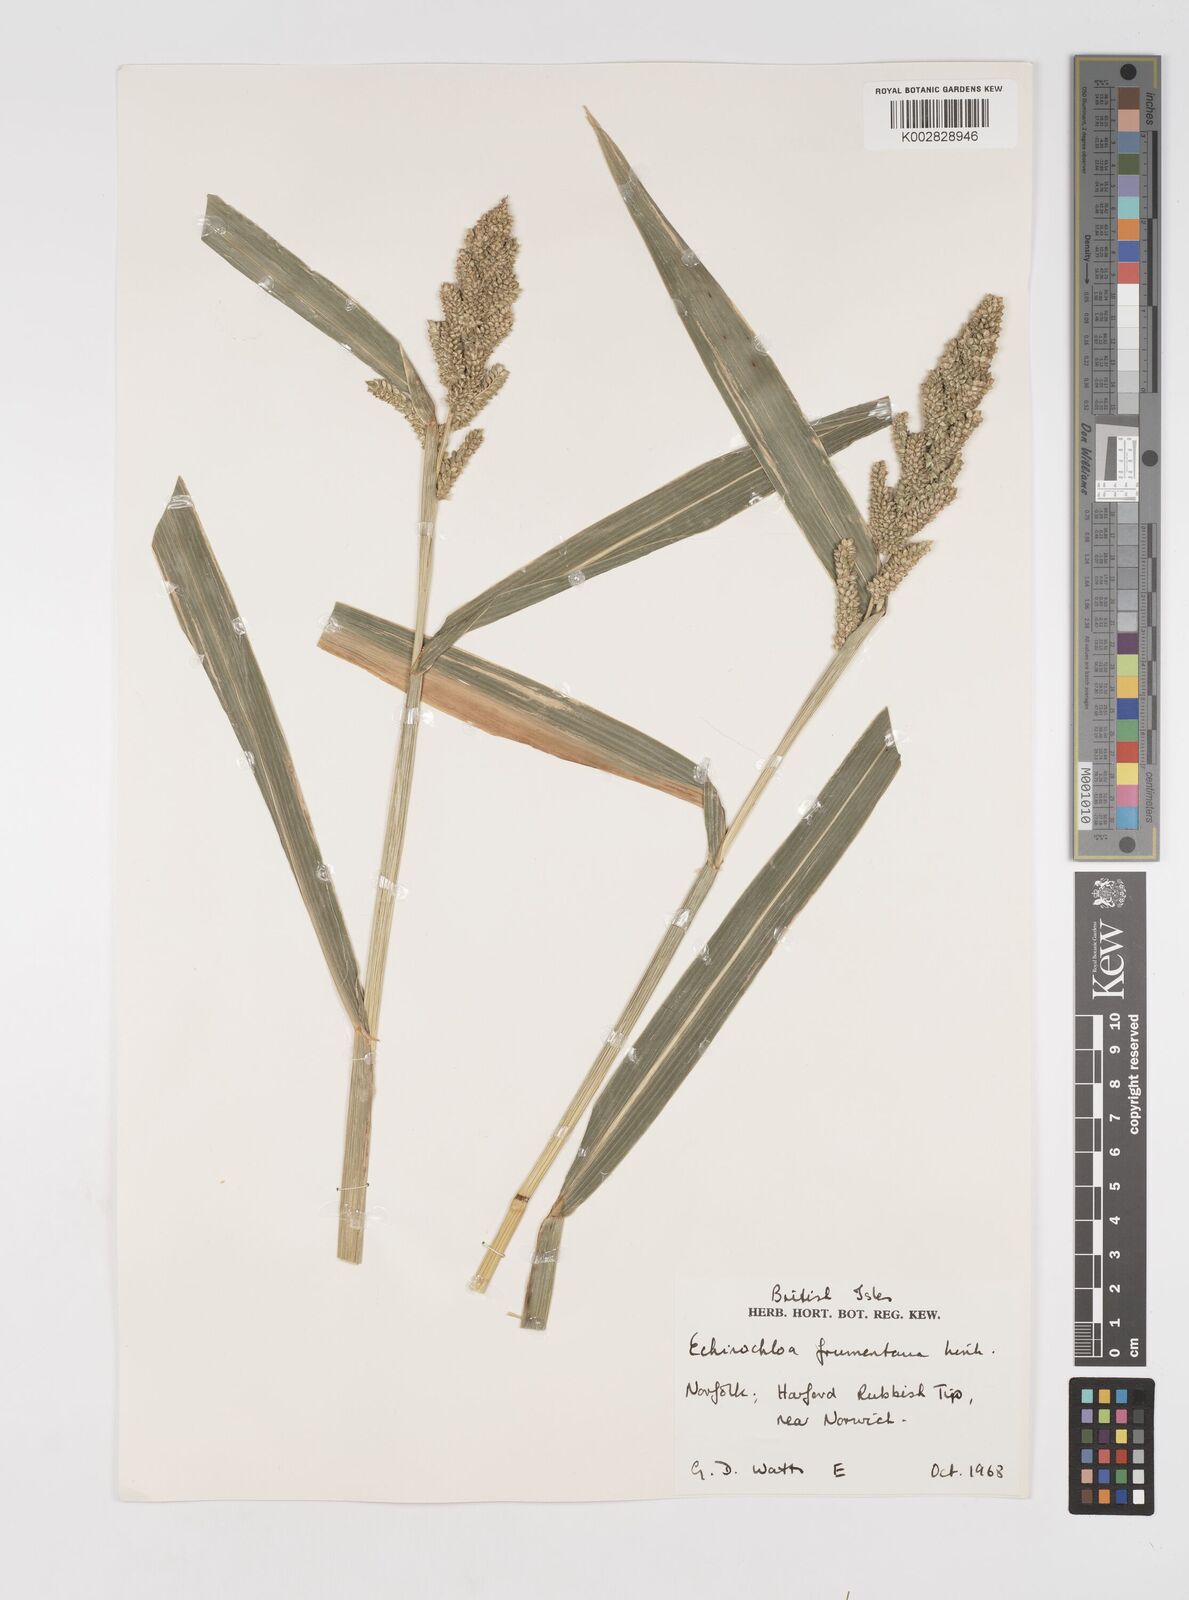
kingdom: Plantae
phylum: Tracheophyta
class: Liliopsida
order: Poales
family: Poaceae
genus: Echinochloa
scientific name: Echinochloa frumentacea
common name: Billion-dollar grass
